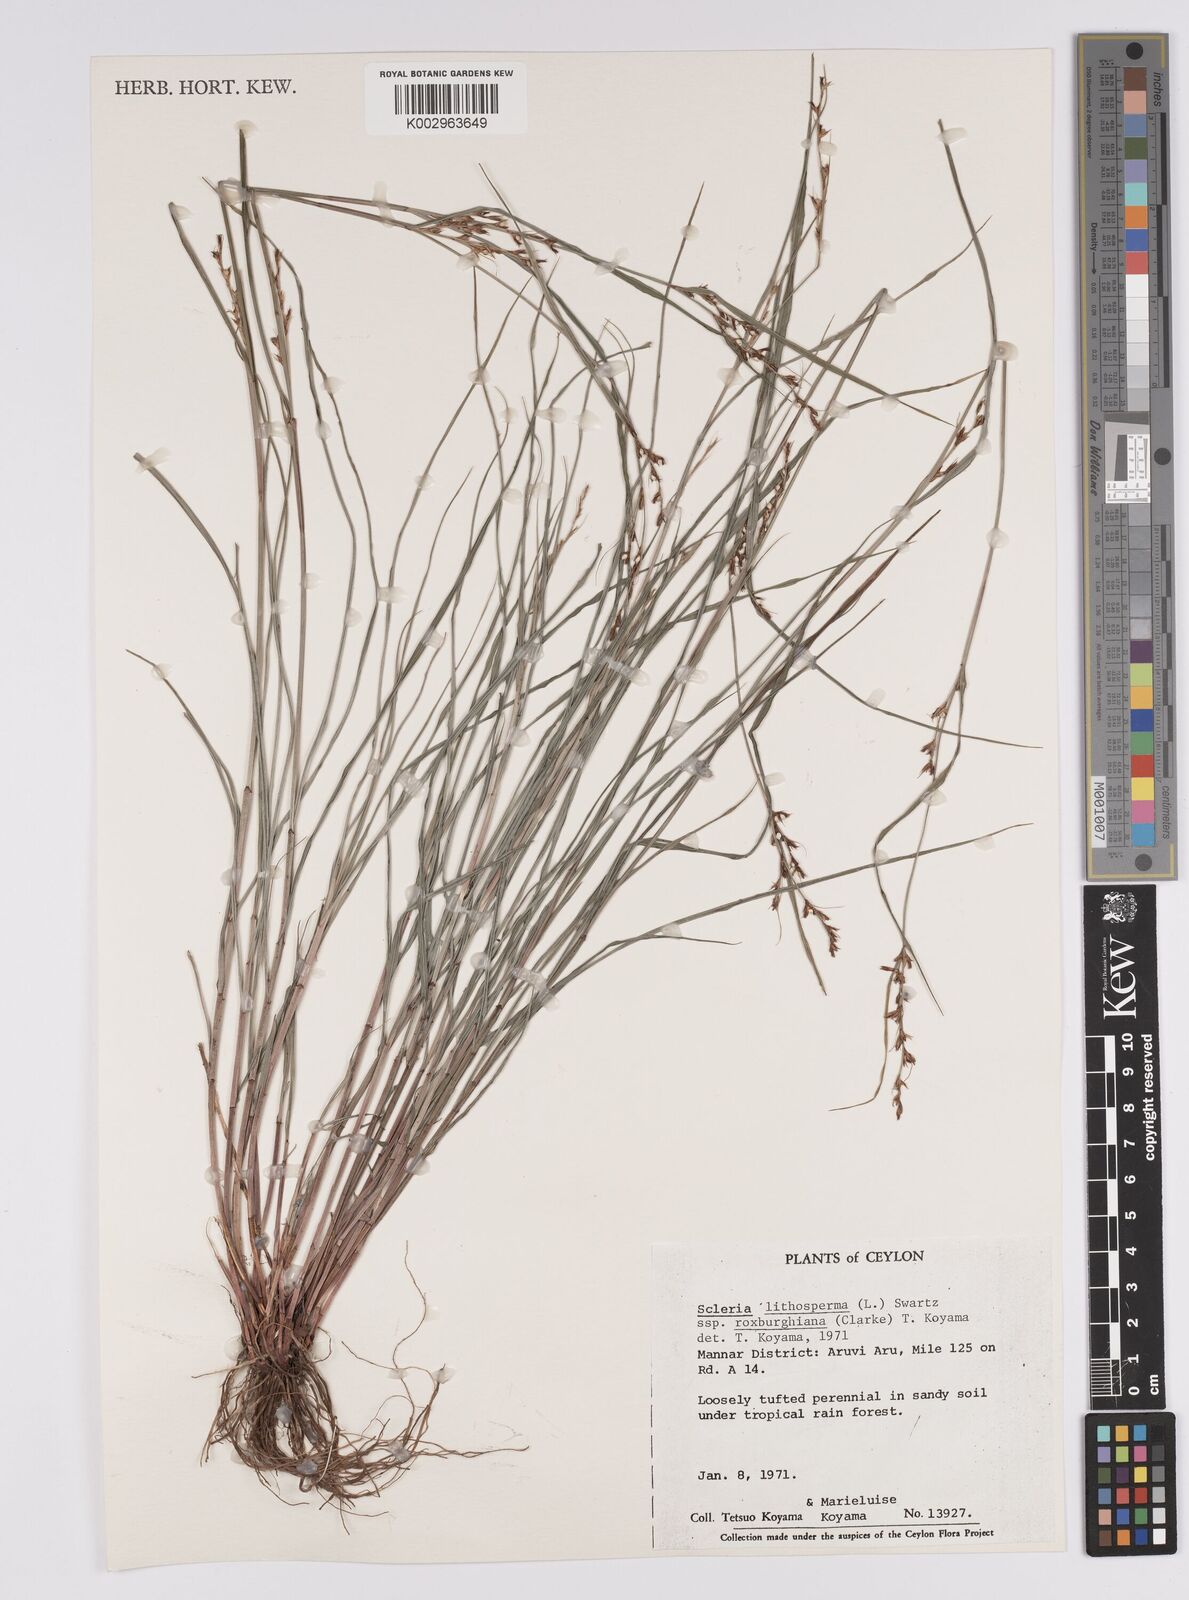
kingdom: Plantae
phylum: Tracheophyta
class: Liliopsida
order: Poales
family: Cyperaceae
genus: Scleria
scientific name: Scleria lithosperma
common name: Florida keys nut-rush
